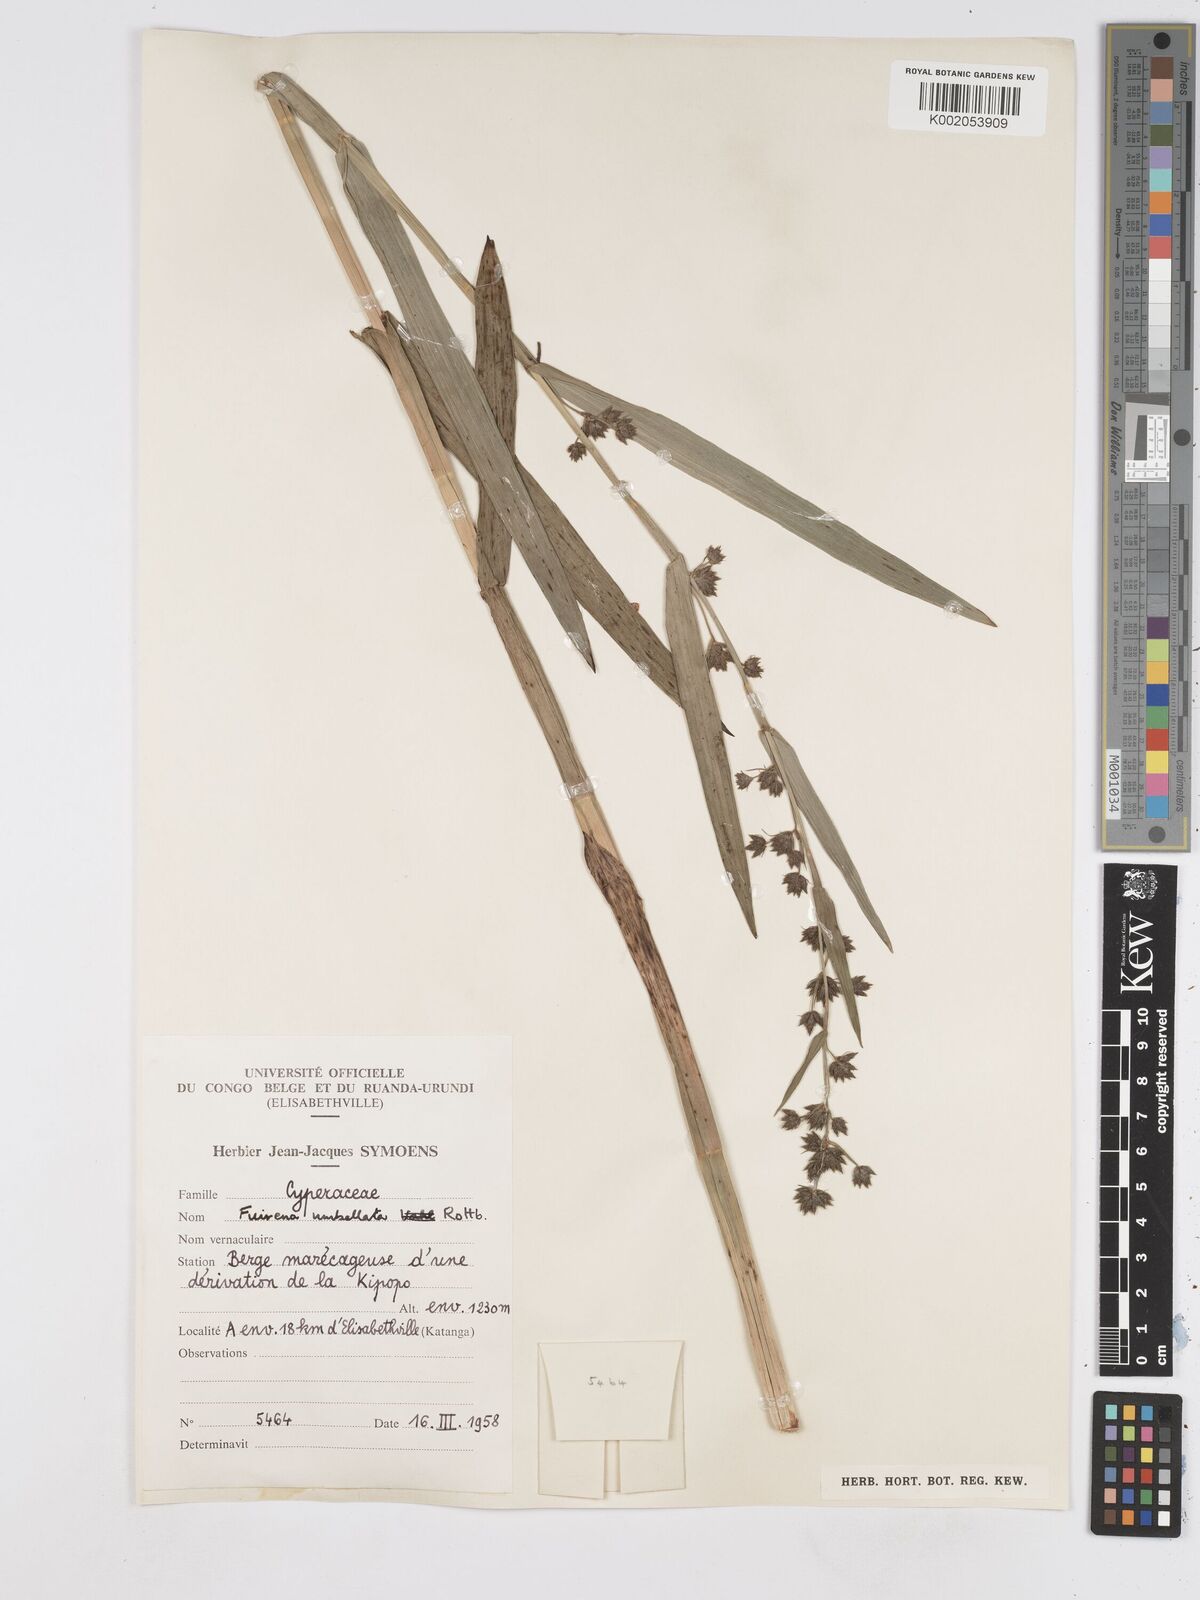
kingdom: Plantae
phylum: Tracheophyta
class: Liliopsida
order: Poales
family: Cyperaceae
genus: Fuirena
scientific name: Fuirena umbellata
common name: Yefen
